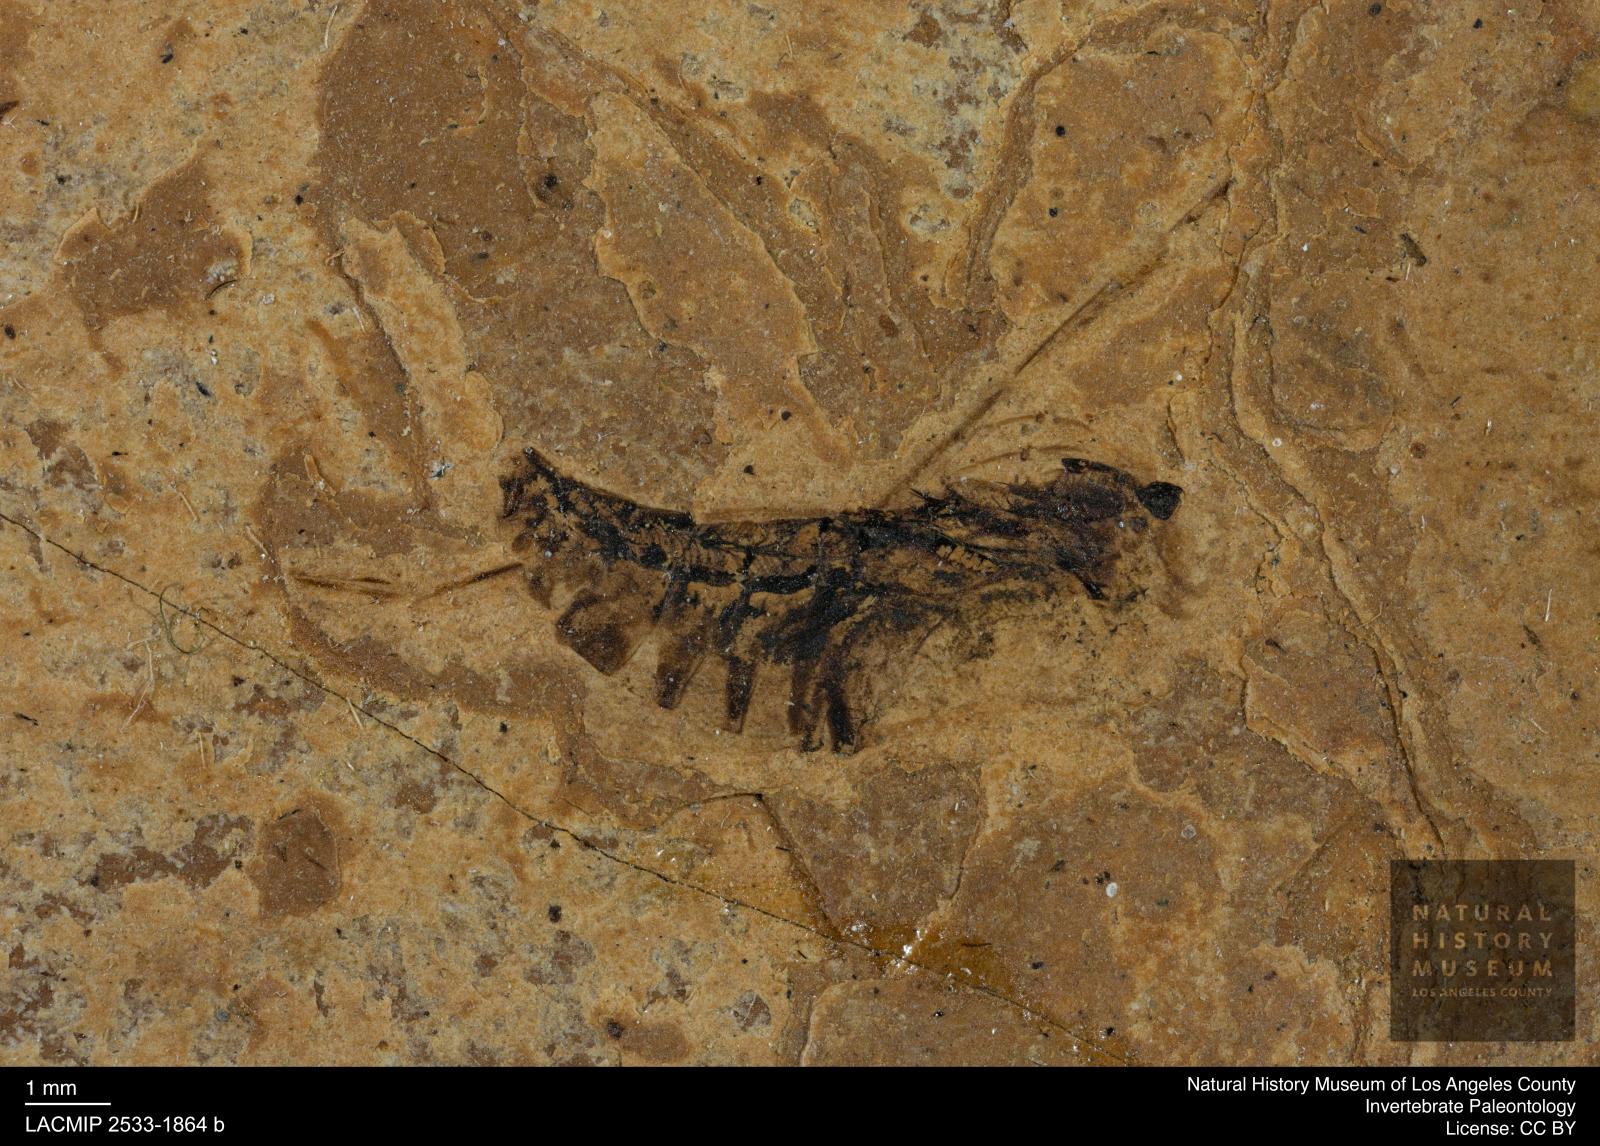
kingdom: Animalia
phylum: Arthropoda
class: Insecta
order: Hemiptera
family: Notonectidae
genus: Notonecta
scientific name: Notonecta
